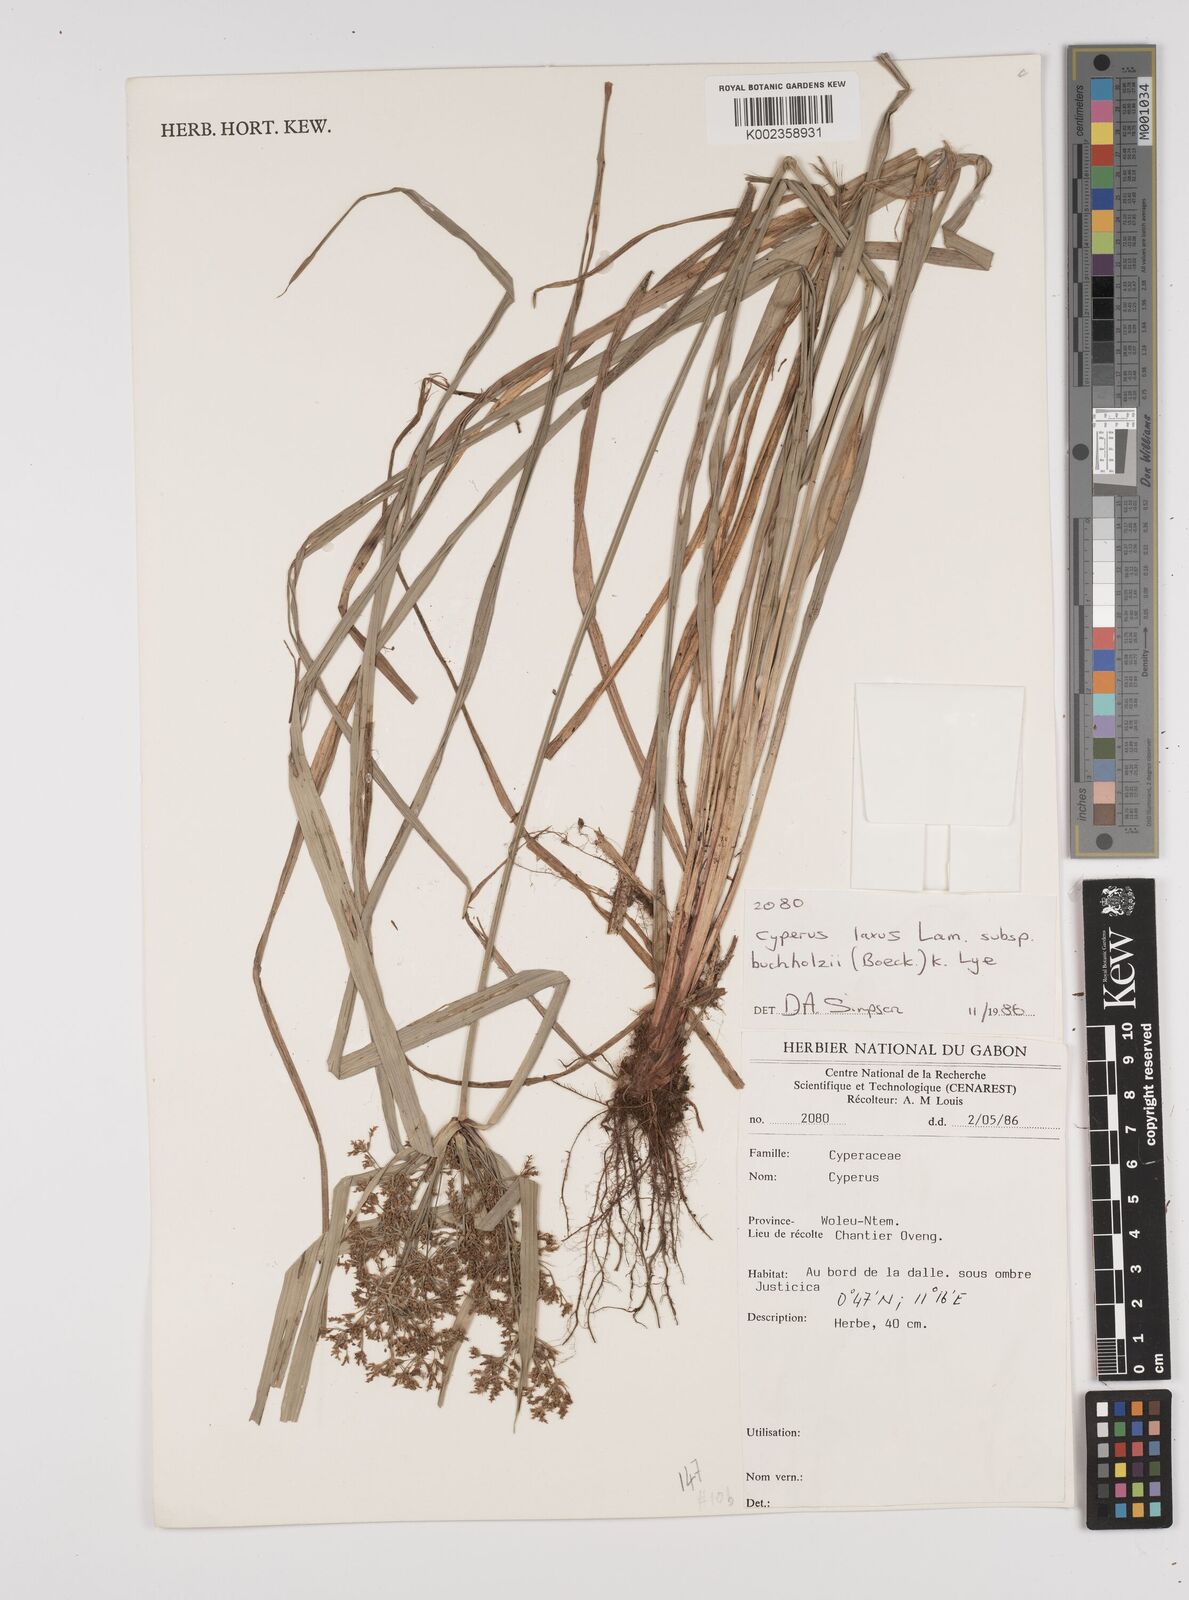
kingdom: Plantae
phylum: Tracheophyta
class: Liliopsida
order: Poales
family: Cyperaceae
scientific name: Cyperaceae
